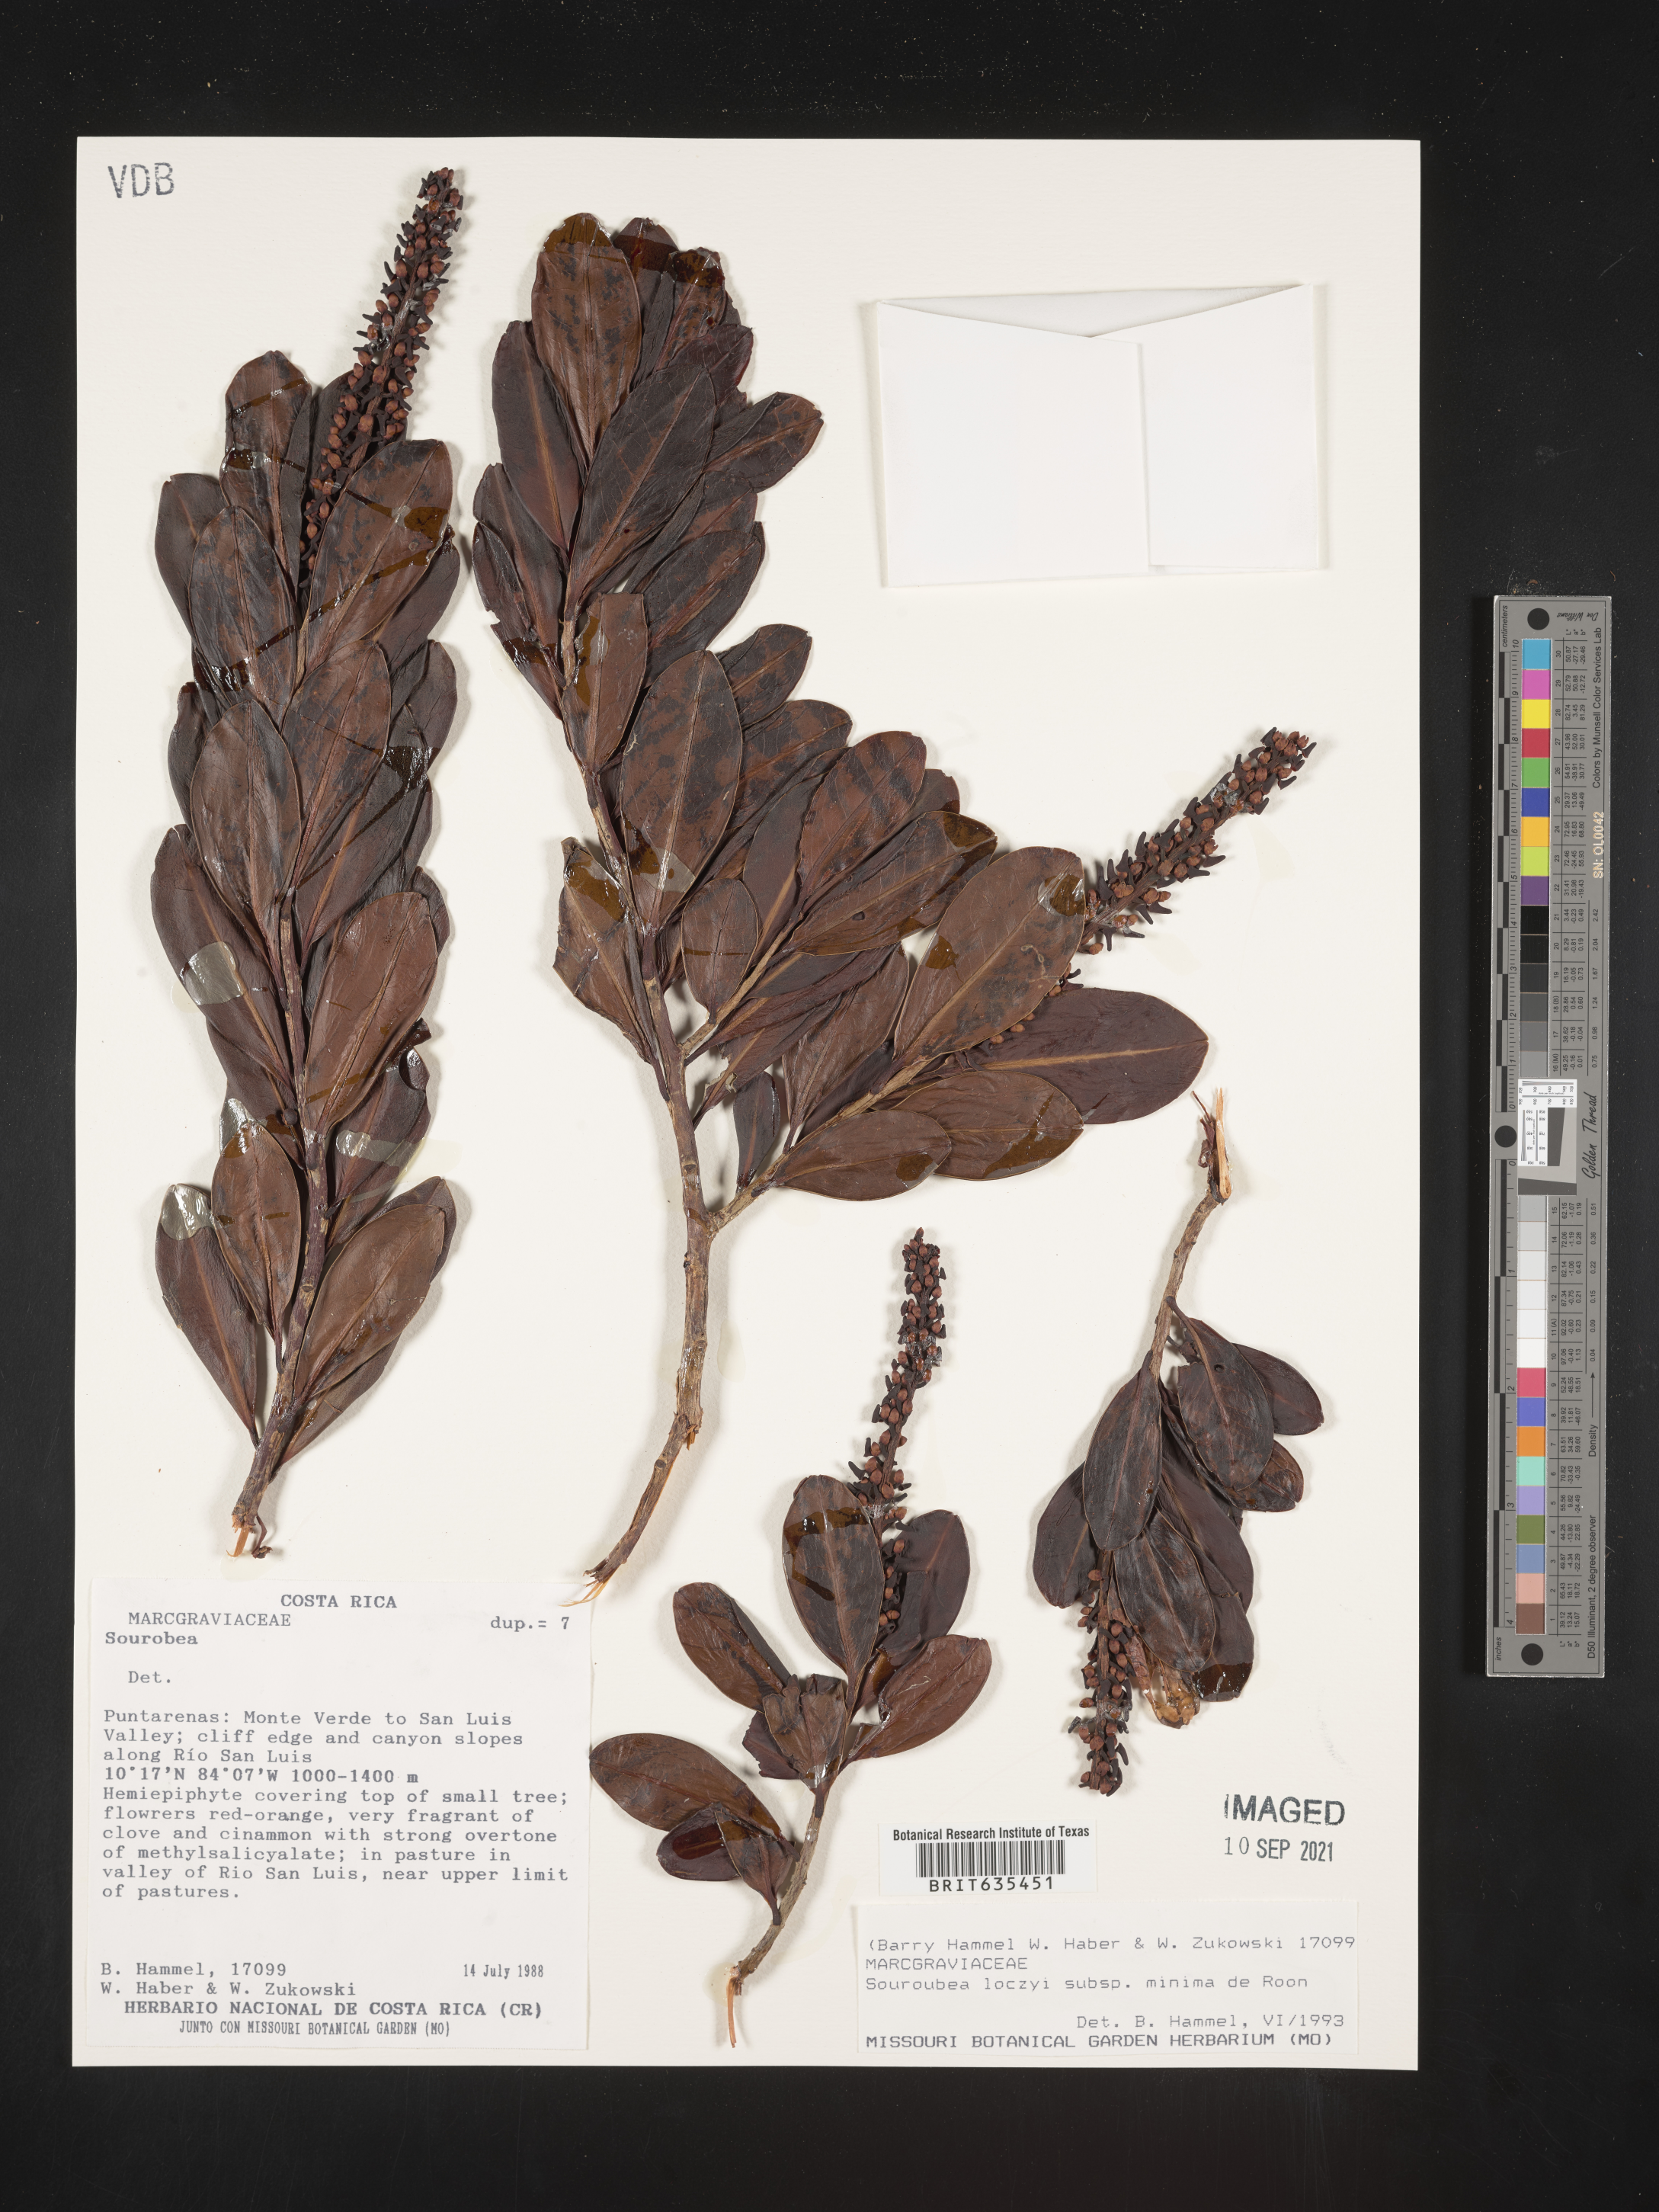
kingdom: Plantae
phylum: Tracheophyta
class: Magnoliopsida
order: Ericales
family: Marcgraviaceae
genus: Souroubea
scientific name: Souroubea
